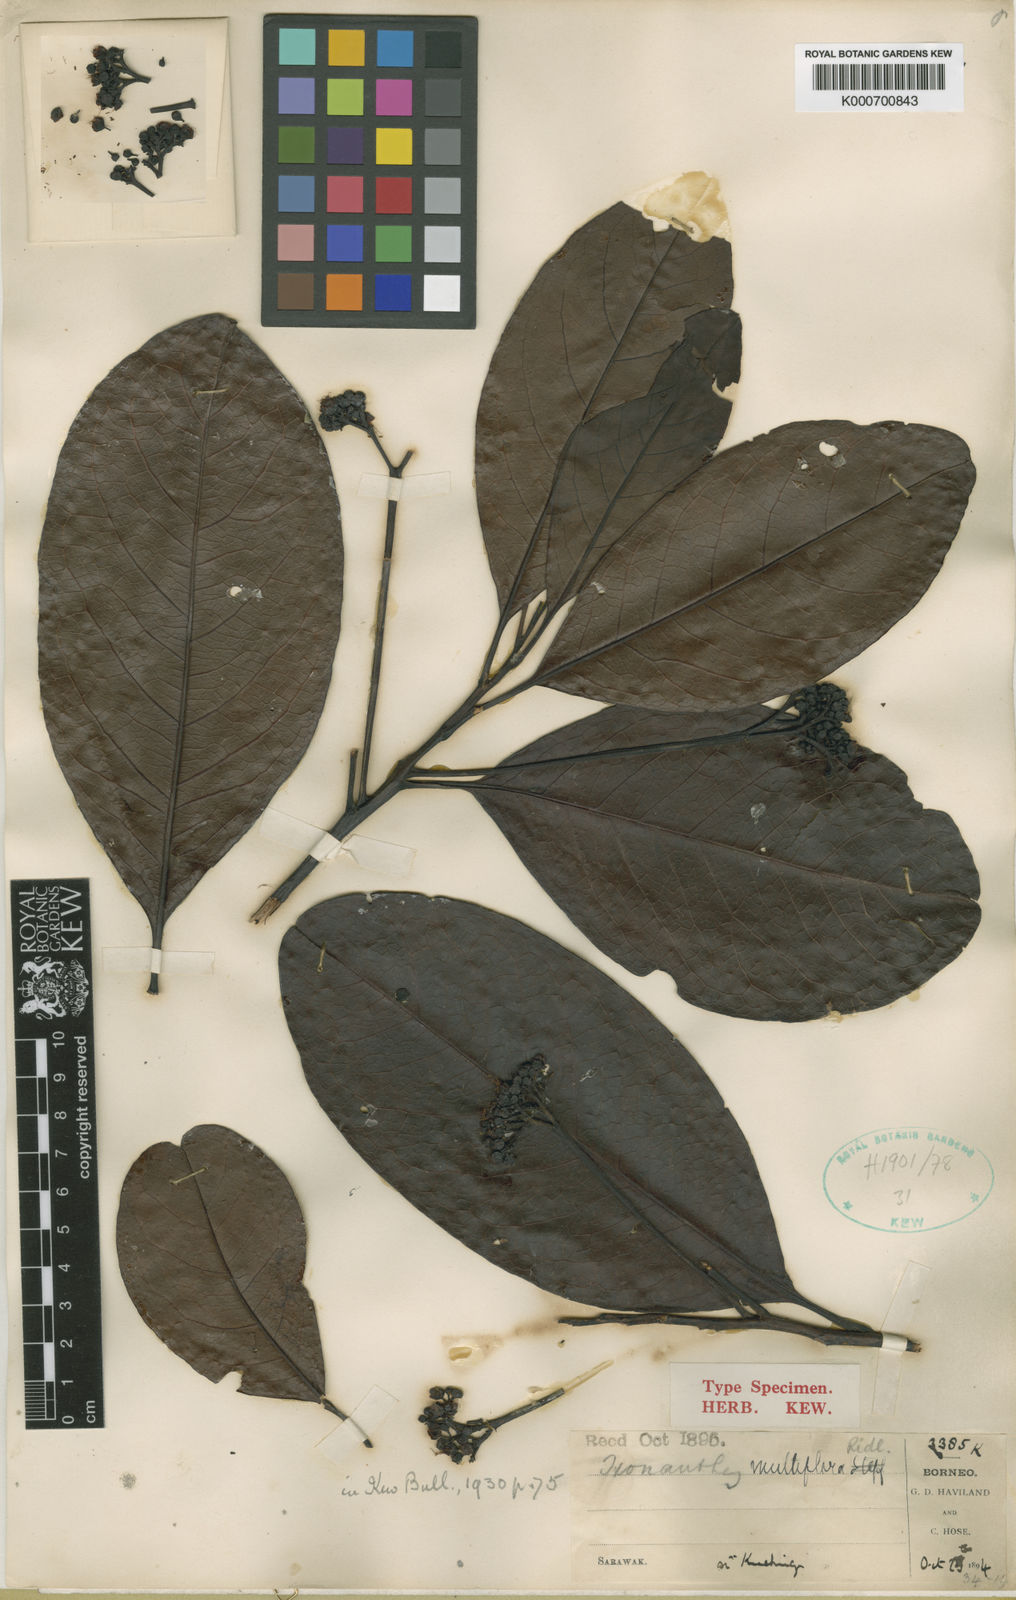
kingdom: Plantae
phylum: Tracheophyta
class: Magnoliopsida
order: Malpighiales
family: Ixonanthaceae
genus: Ixonanthes
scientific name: Ixonanthes petiolaris
